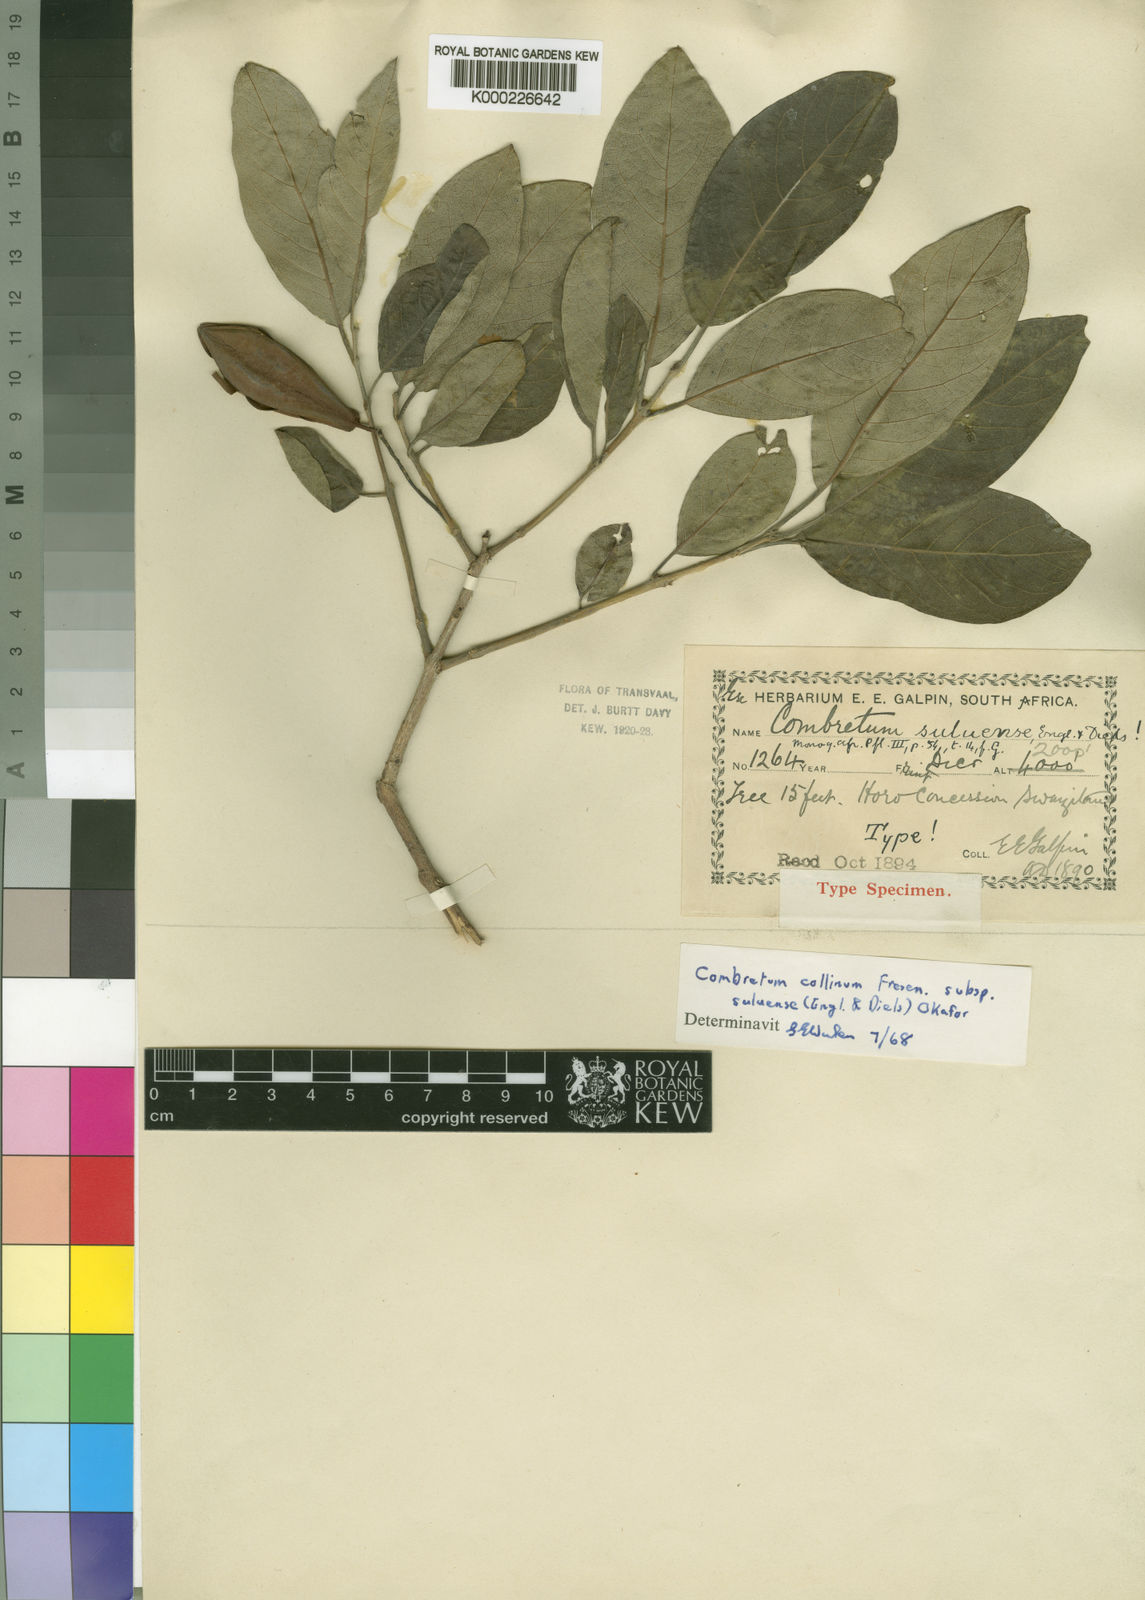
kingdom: Plantae
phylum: Tracheophyta
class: Magnoliopsida
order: Myrtales
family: Combretaceae
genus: Combretum
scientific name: Combretum collinum
